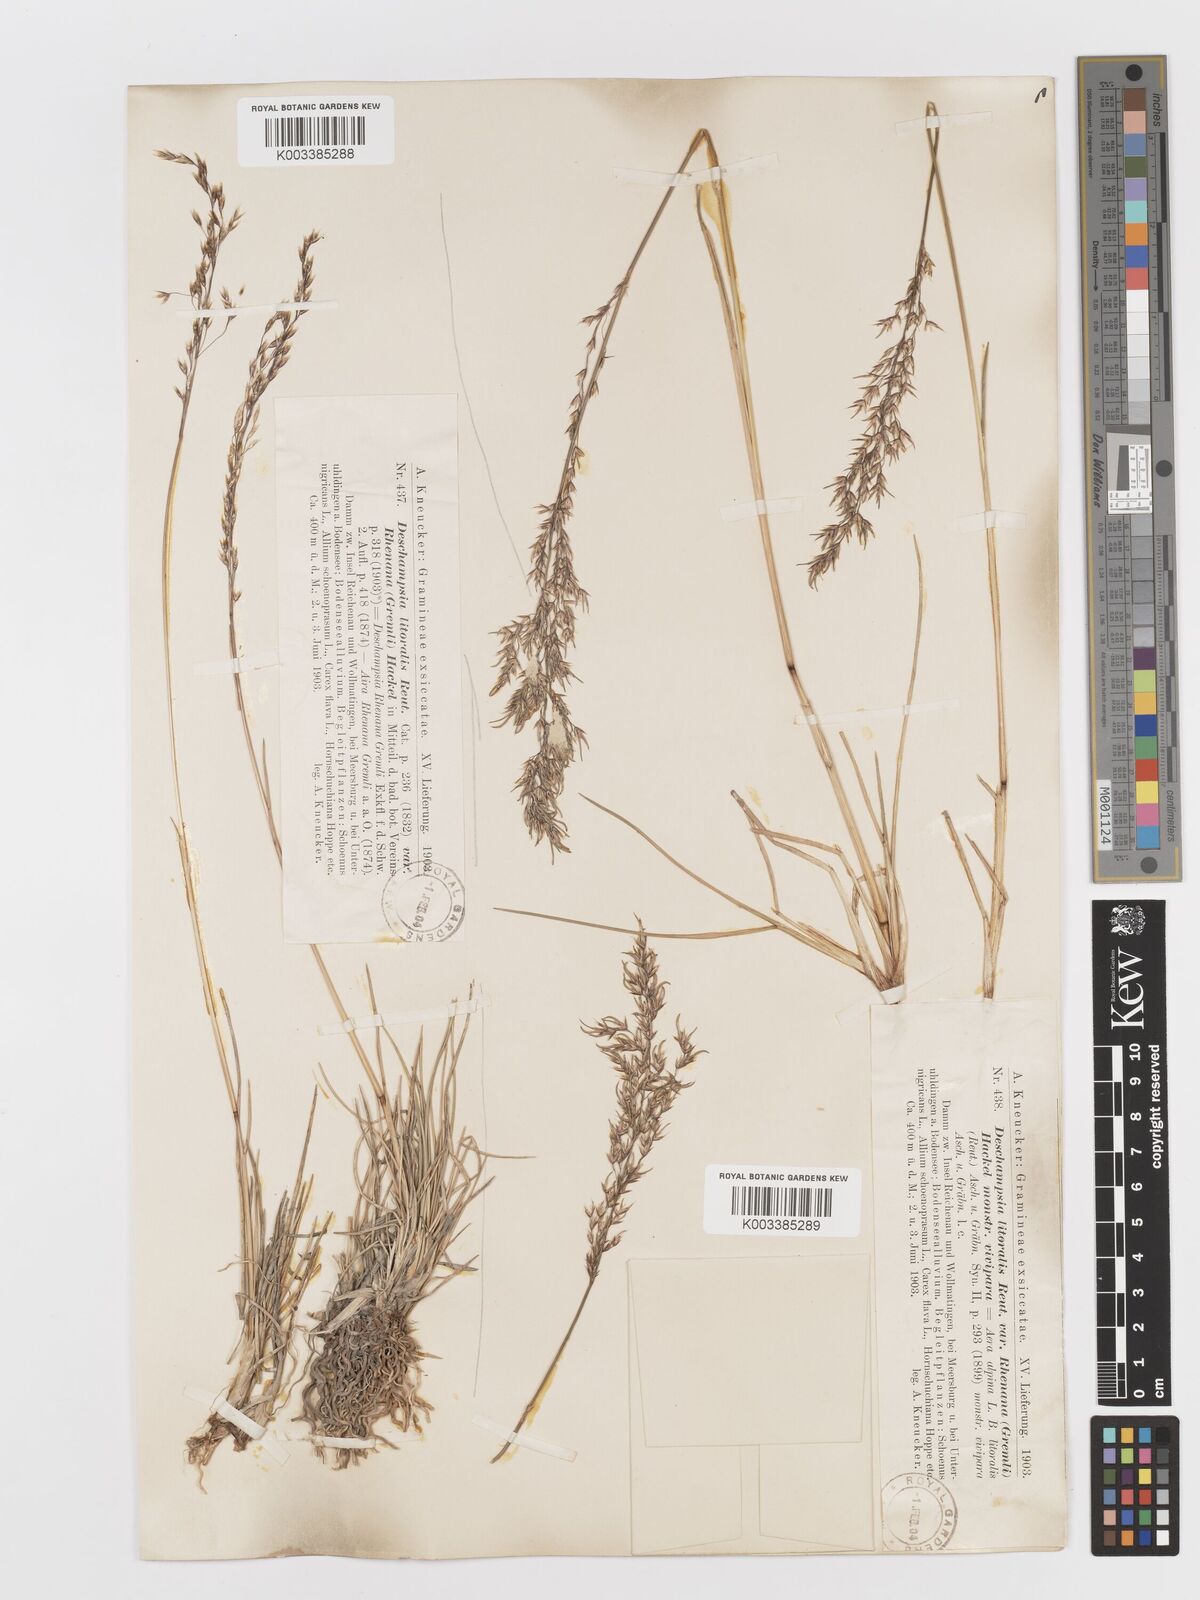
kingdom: Plantae
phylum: Tracheophyta
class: Liliopsida
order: Poales
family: Poaceae
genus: Deschampsia
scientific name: Deschampsia cespitosa
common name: Tufted hair-grass
